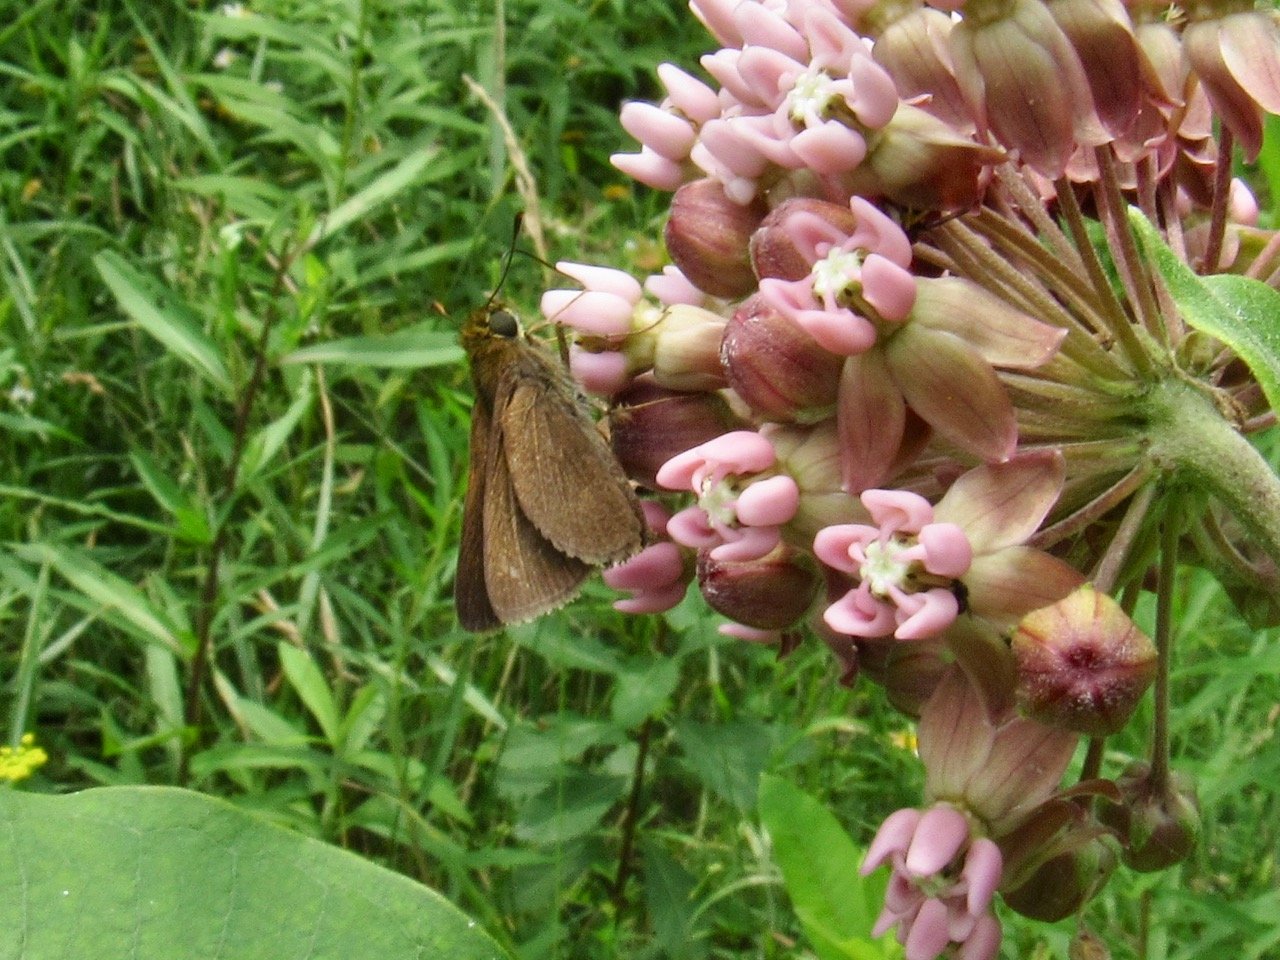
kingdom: Animalia
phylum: Arthropoda
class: Insecta
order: Lepidoptera
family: Hesperiidae
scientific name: Hesperiidae
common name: Skippers
